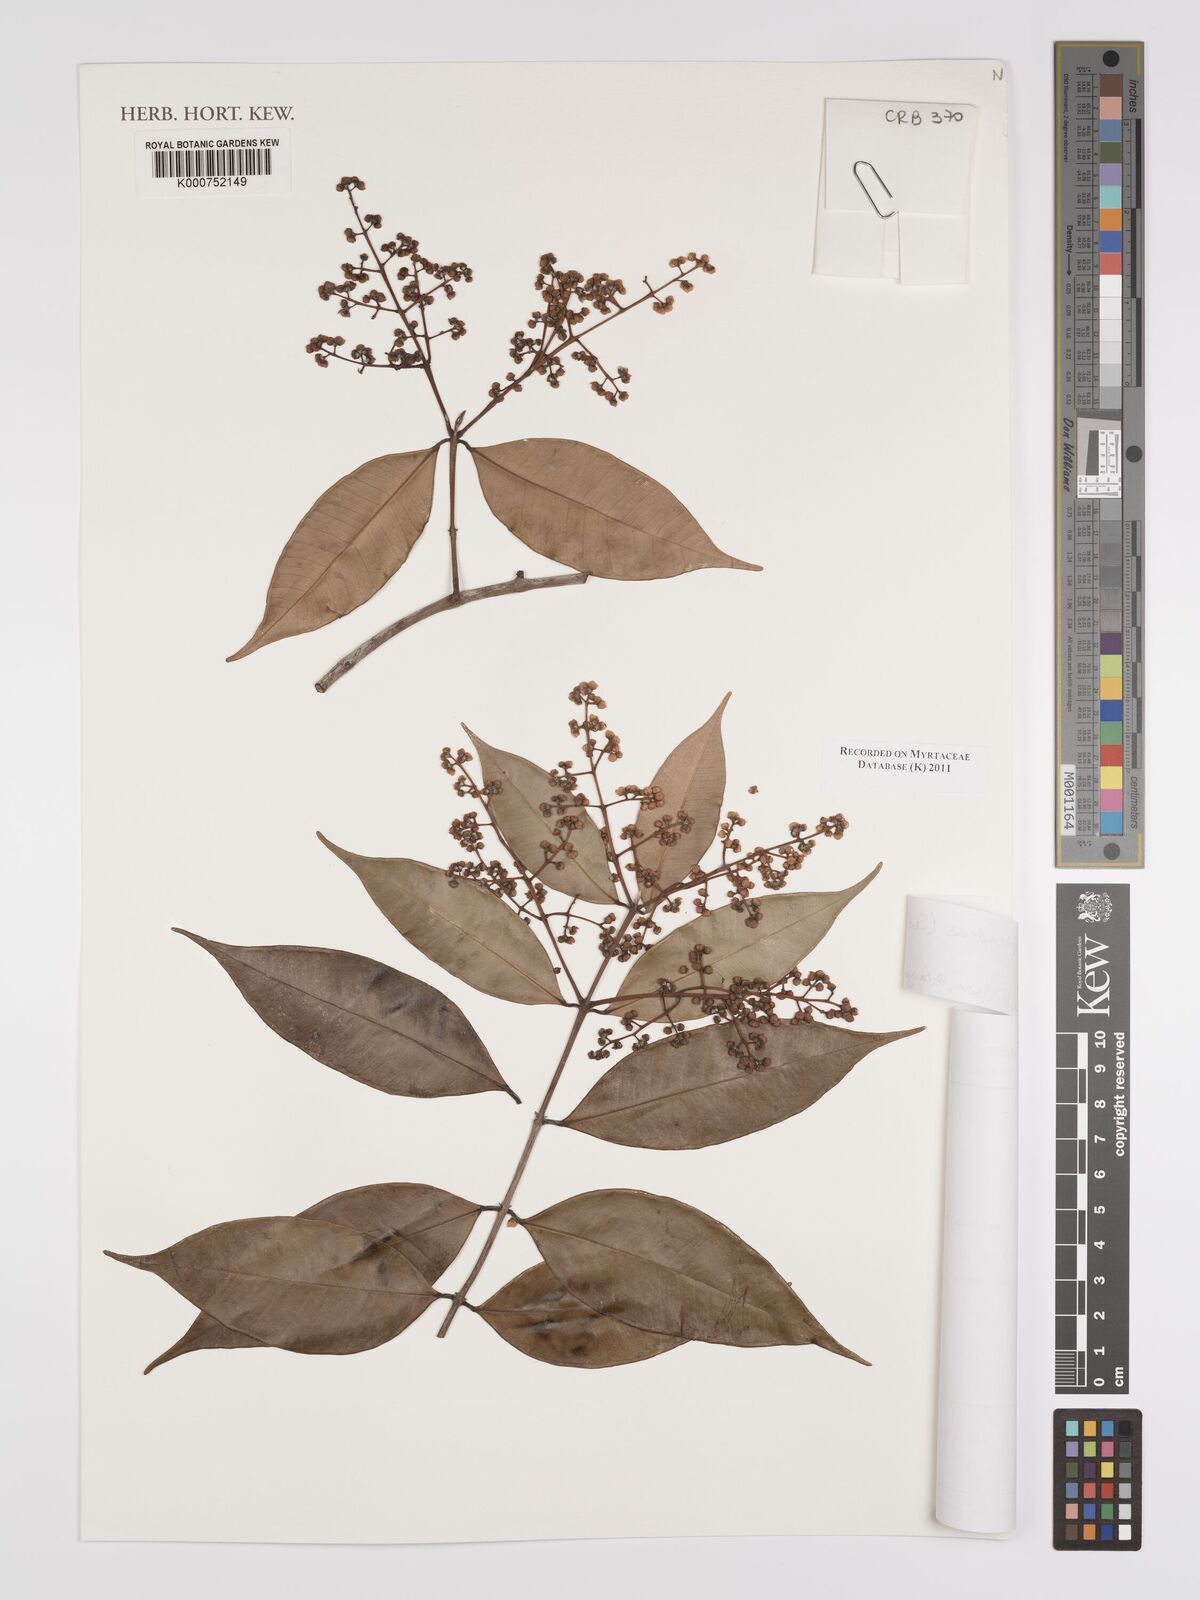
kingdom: Plantae
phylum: Tracheophyta
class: Magnoliopsida
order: Myrtales
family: Myrtaceae
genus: Myrcia
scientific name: Myrcia splendens
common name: Surinam cherry
